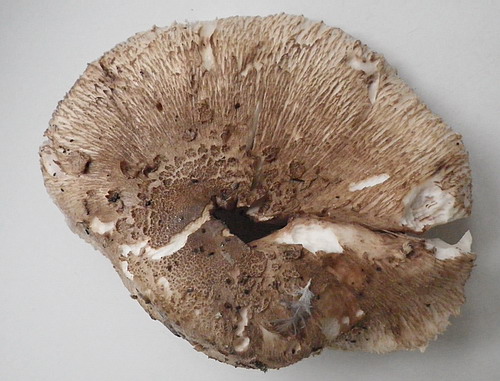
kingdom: Fungi
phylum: Basidiomycota
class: Agaricomycetes
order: Agaricales
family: Agaricaceae
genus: Macrolepiota
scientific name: Macrolepiota fuliginosa
